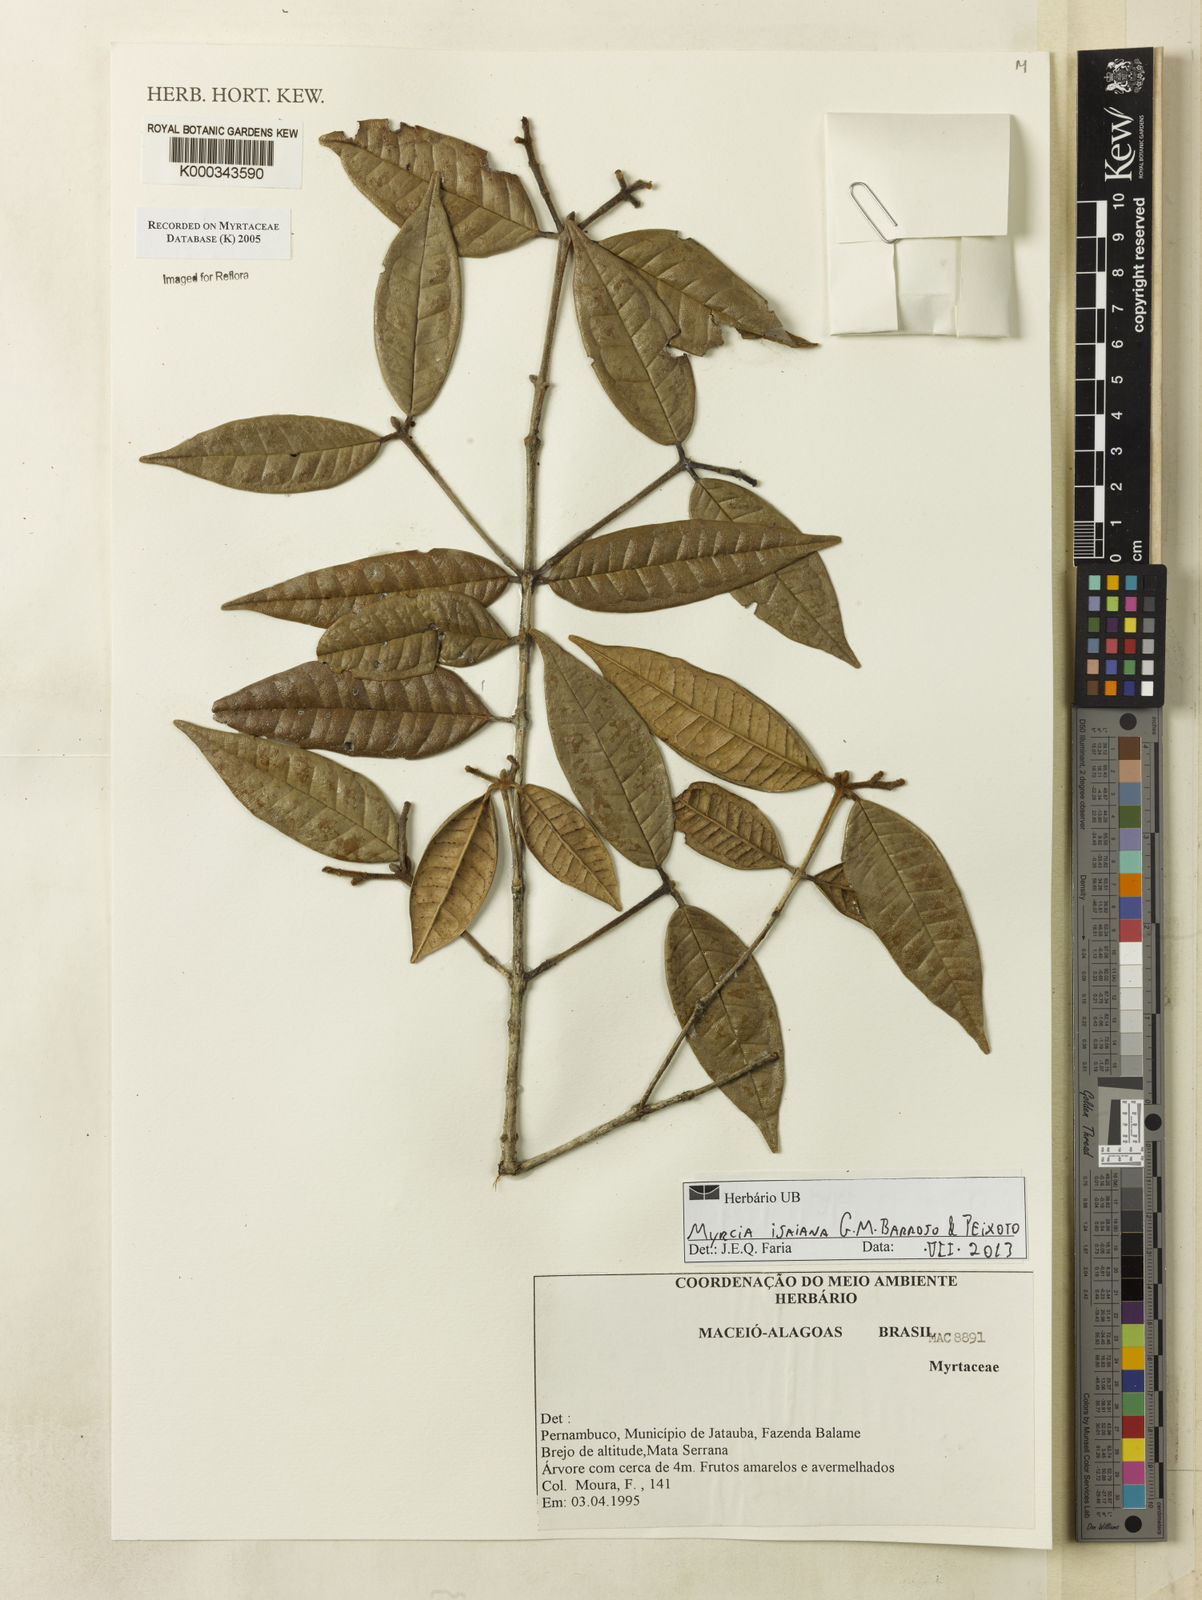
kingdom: Plantae
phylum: Tracheophyta
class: Magnoliopsida
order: Myrtales
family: Myrtaceae
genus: Myrcia
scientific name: Myrcia
